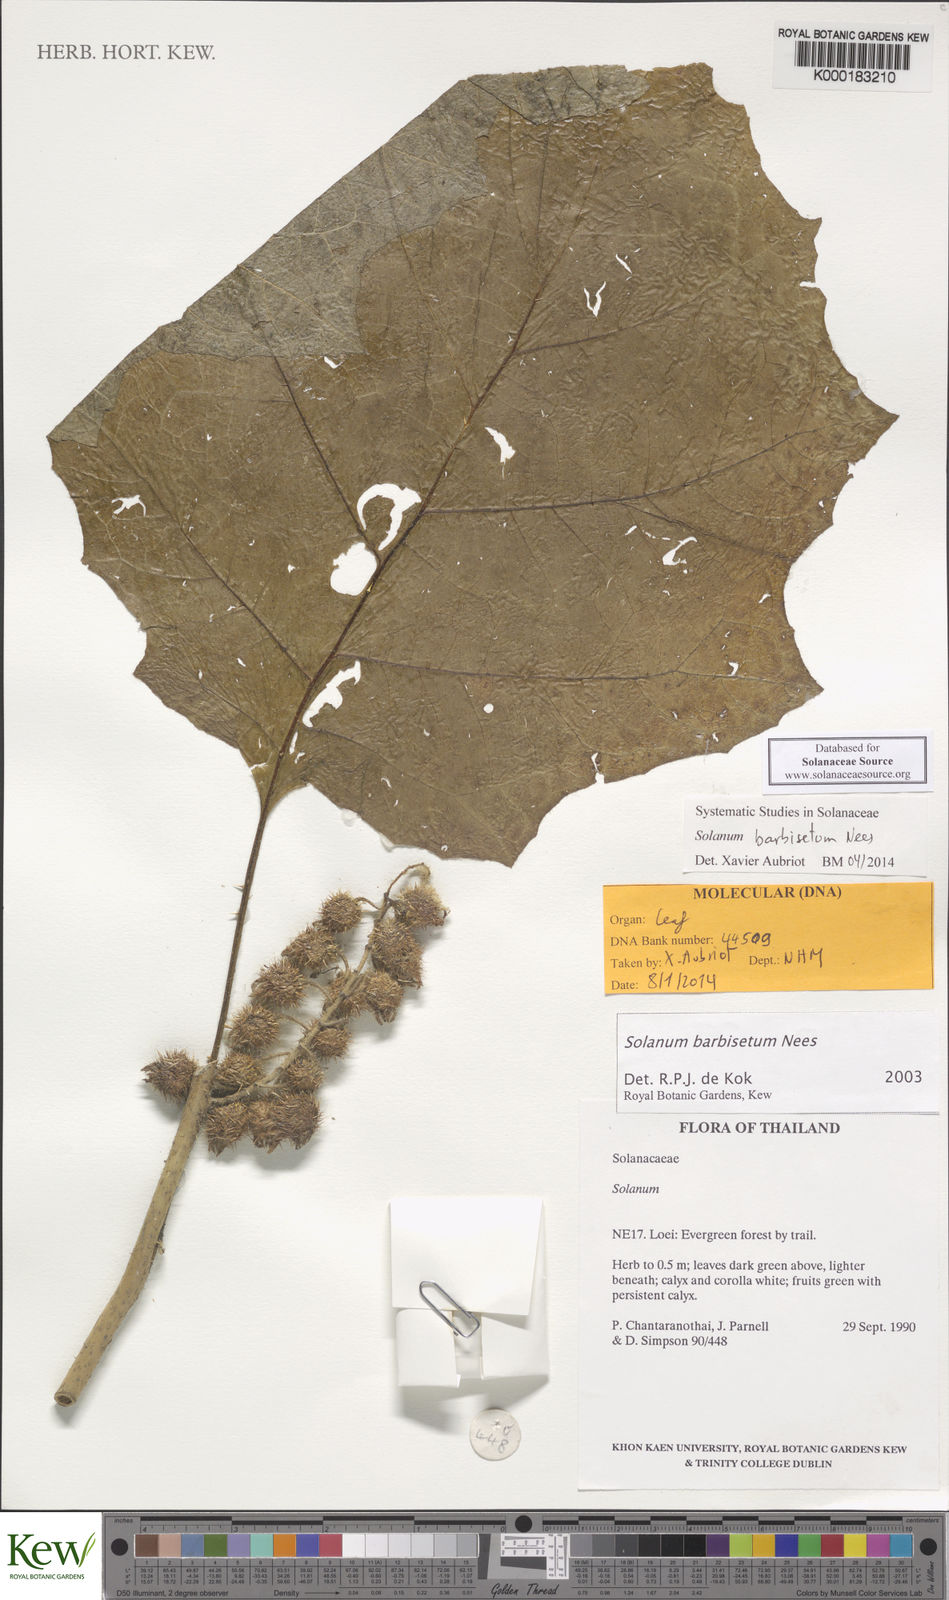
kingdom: Plantae
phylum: Tracheophyta
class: Magnoliopsida
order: Solanales
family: Solanaceae
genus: Solanum
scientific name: Solanum barbisetum
